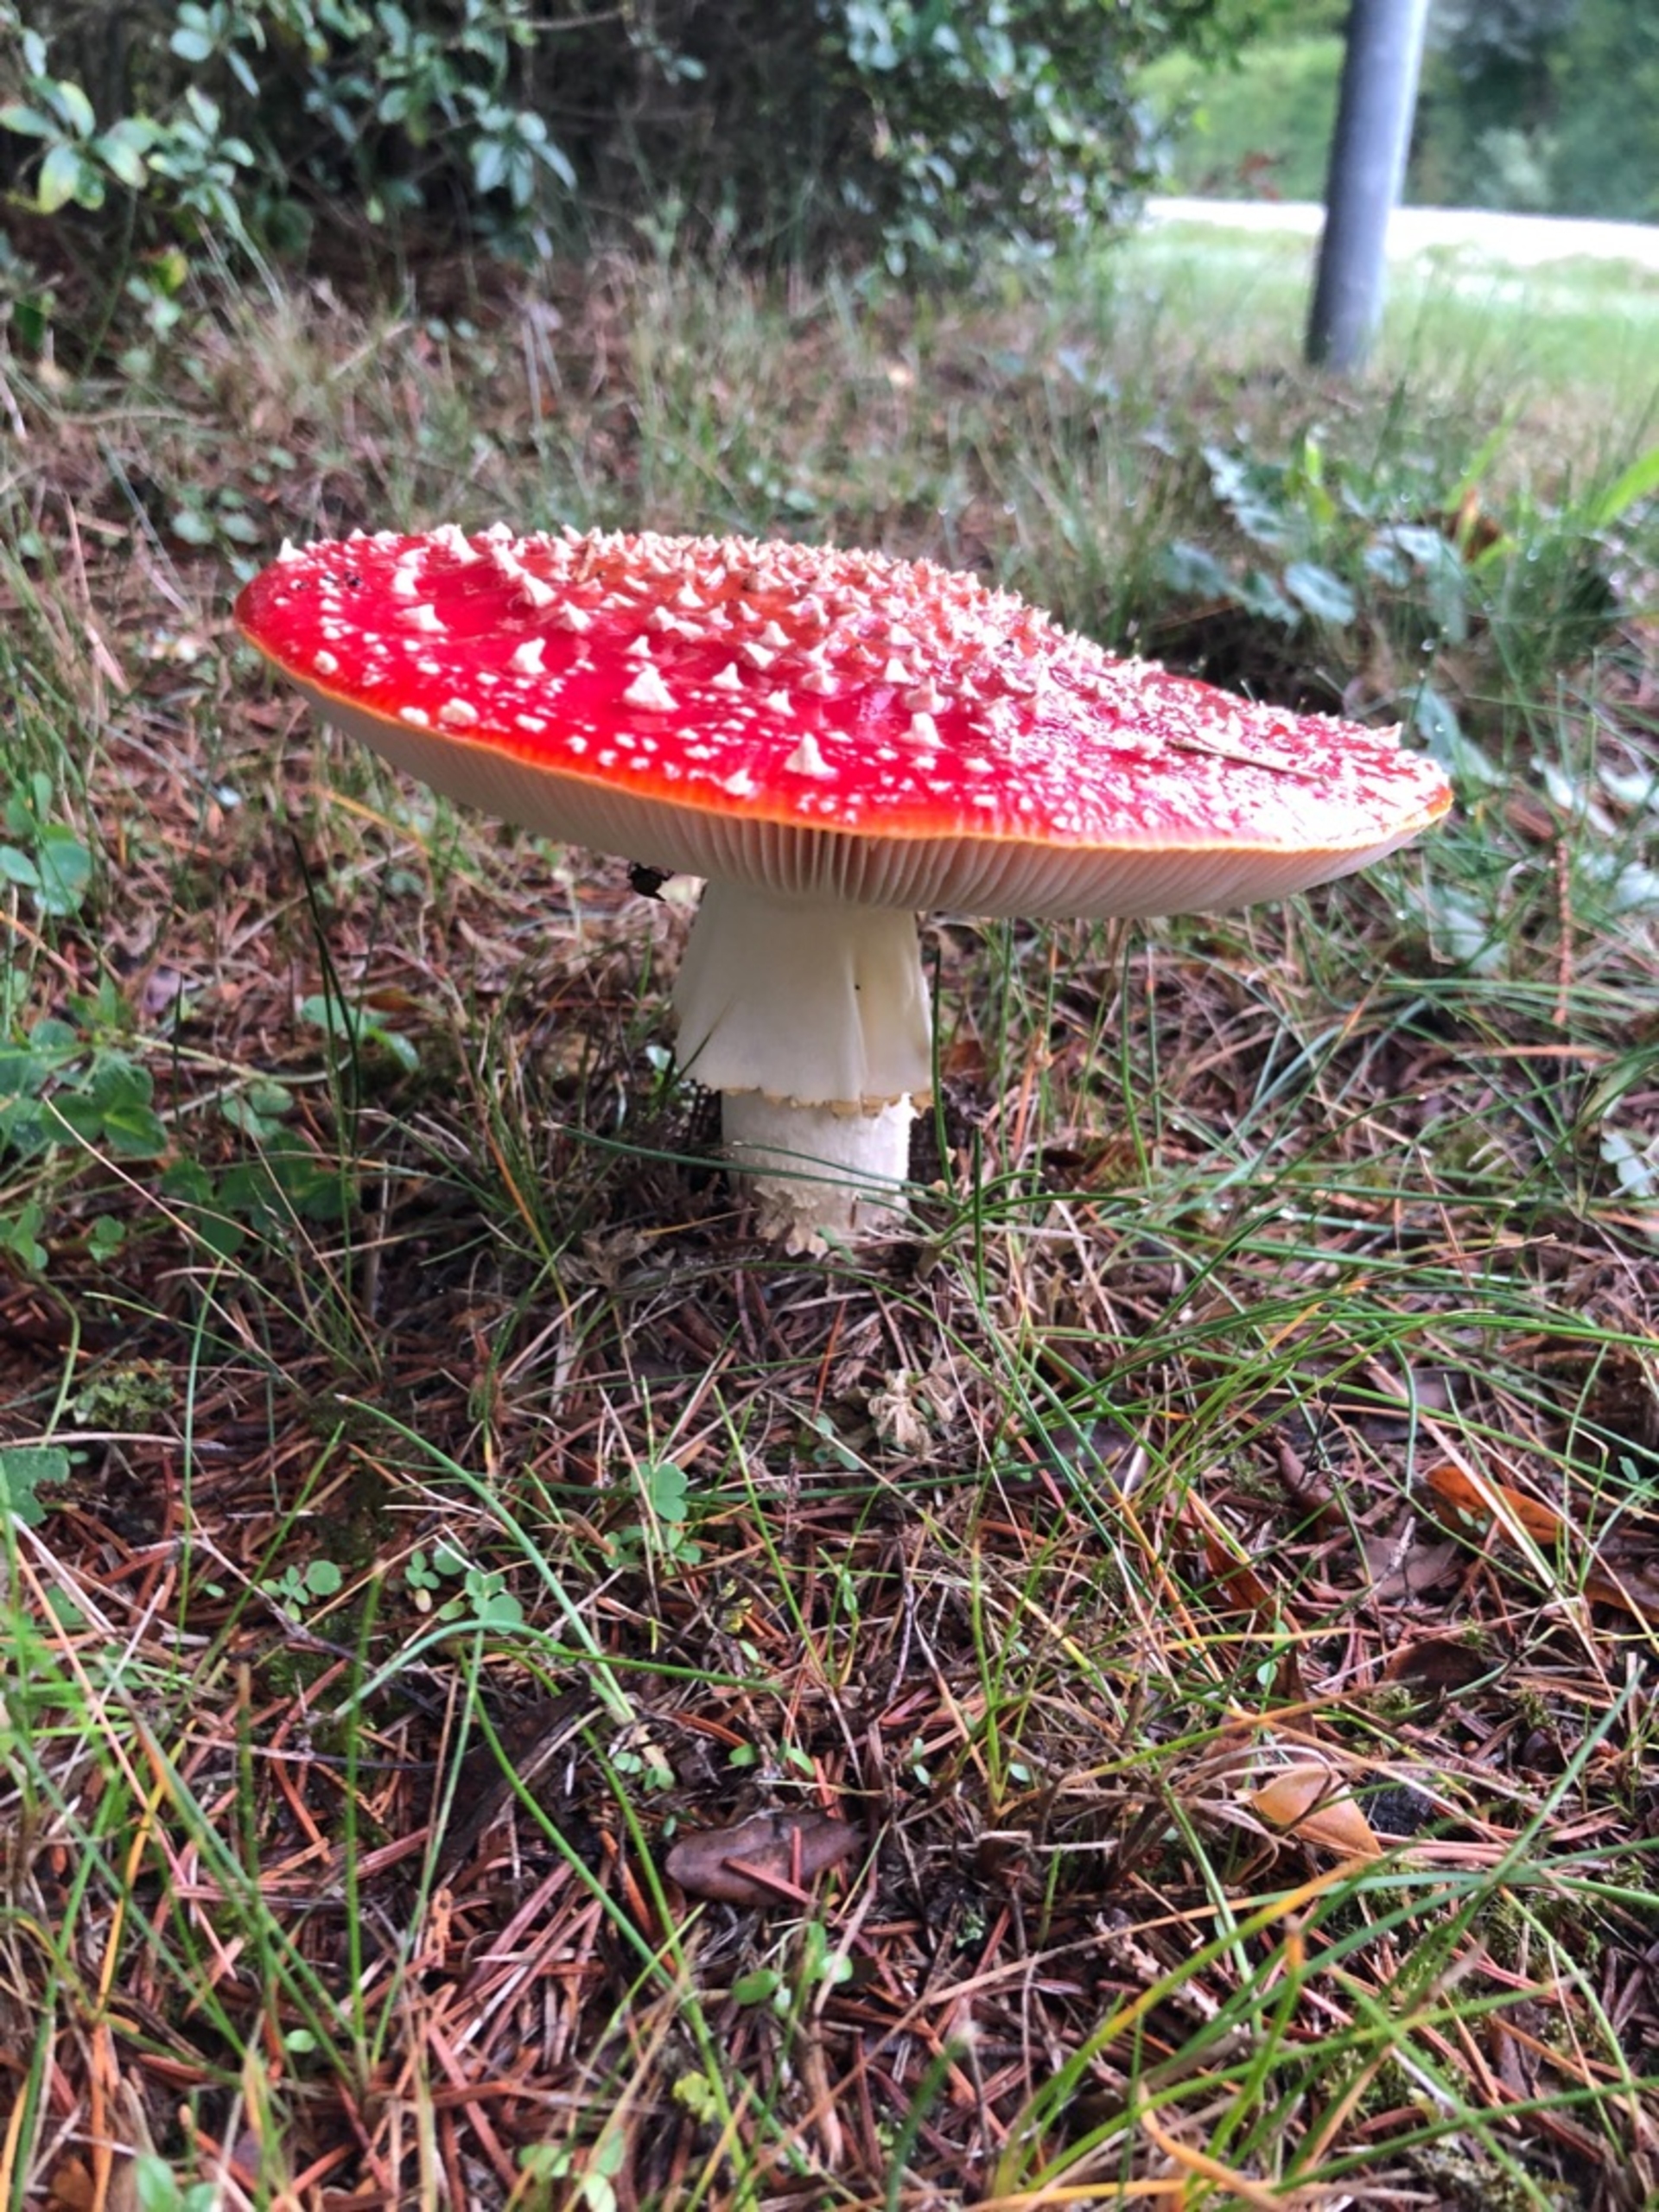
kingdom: Fungi
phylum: Basidiomycota
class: Agaricomycetes
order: Agaricales
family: Amanitaceae
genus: Amanita
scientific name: Amanita muscaria
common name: Rød fluesvamp
